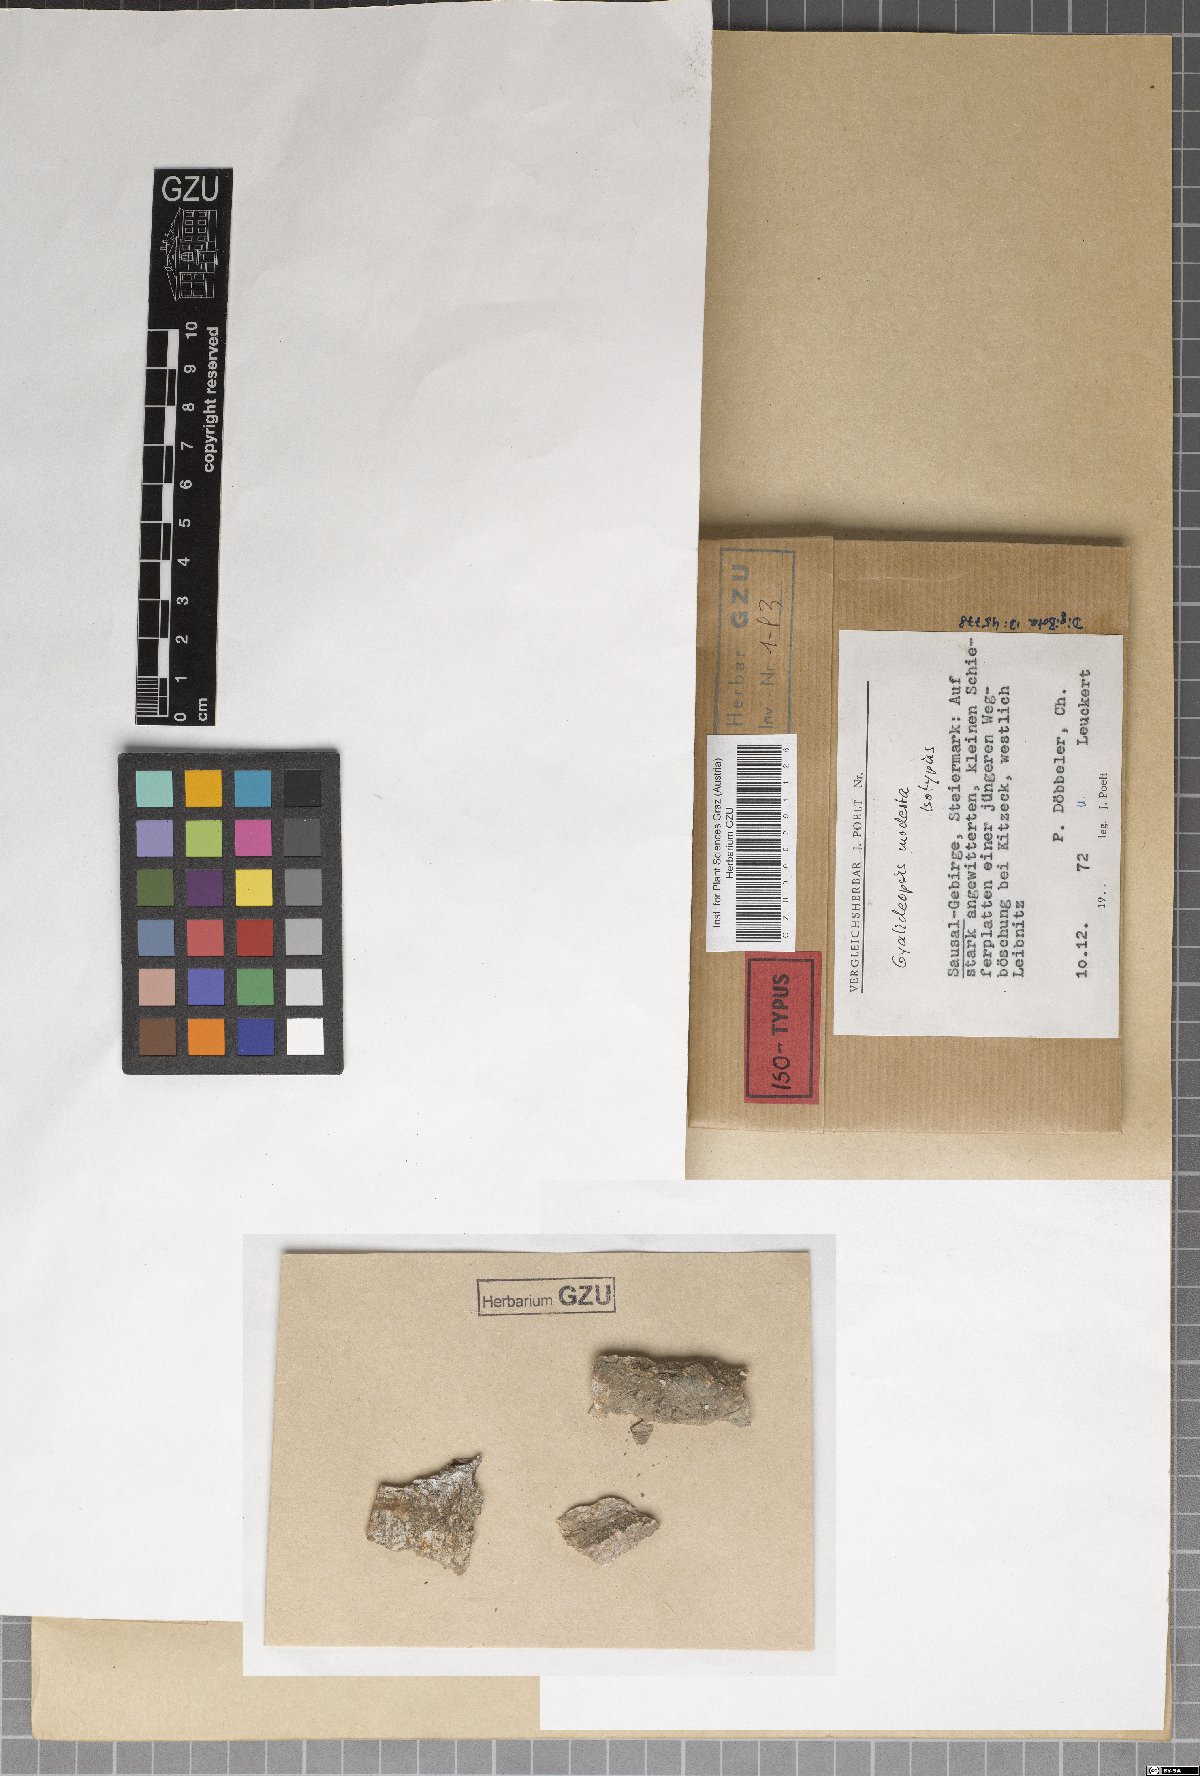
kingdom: Fungi
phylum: Ascomycota
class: Lecanoromycetes
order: Ostropales
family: Gomphillaceae
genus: Gyalideopsis
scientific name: Gyalideopsis
